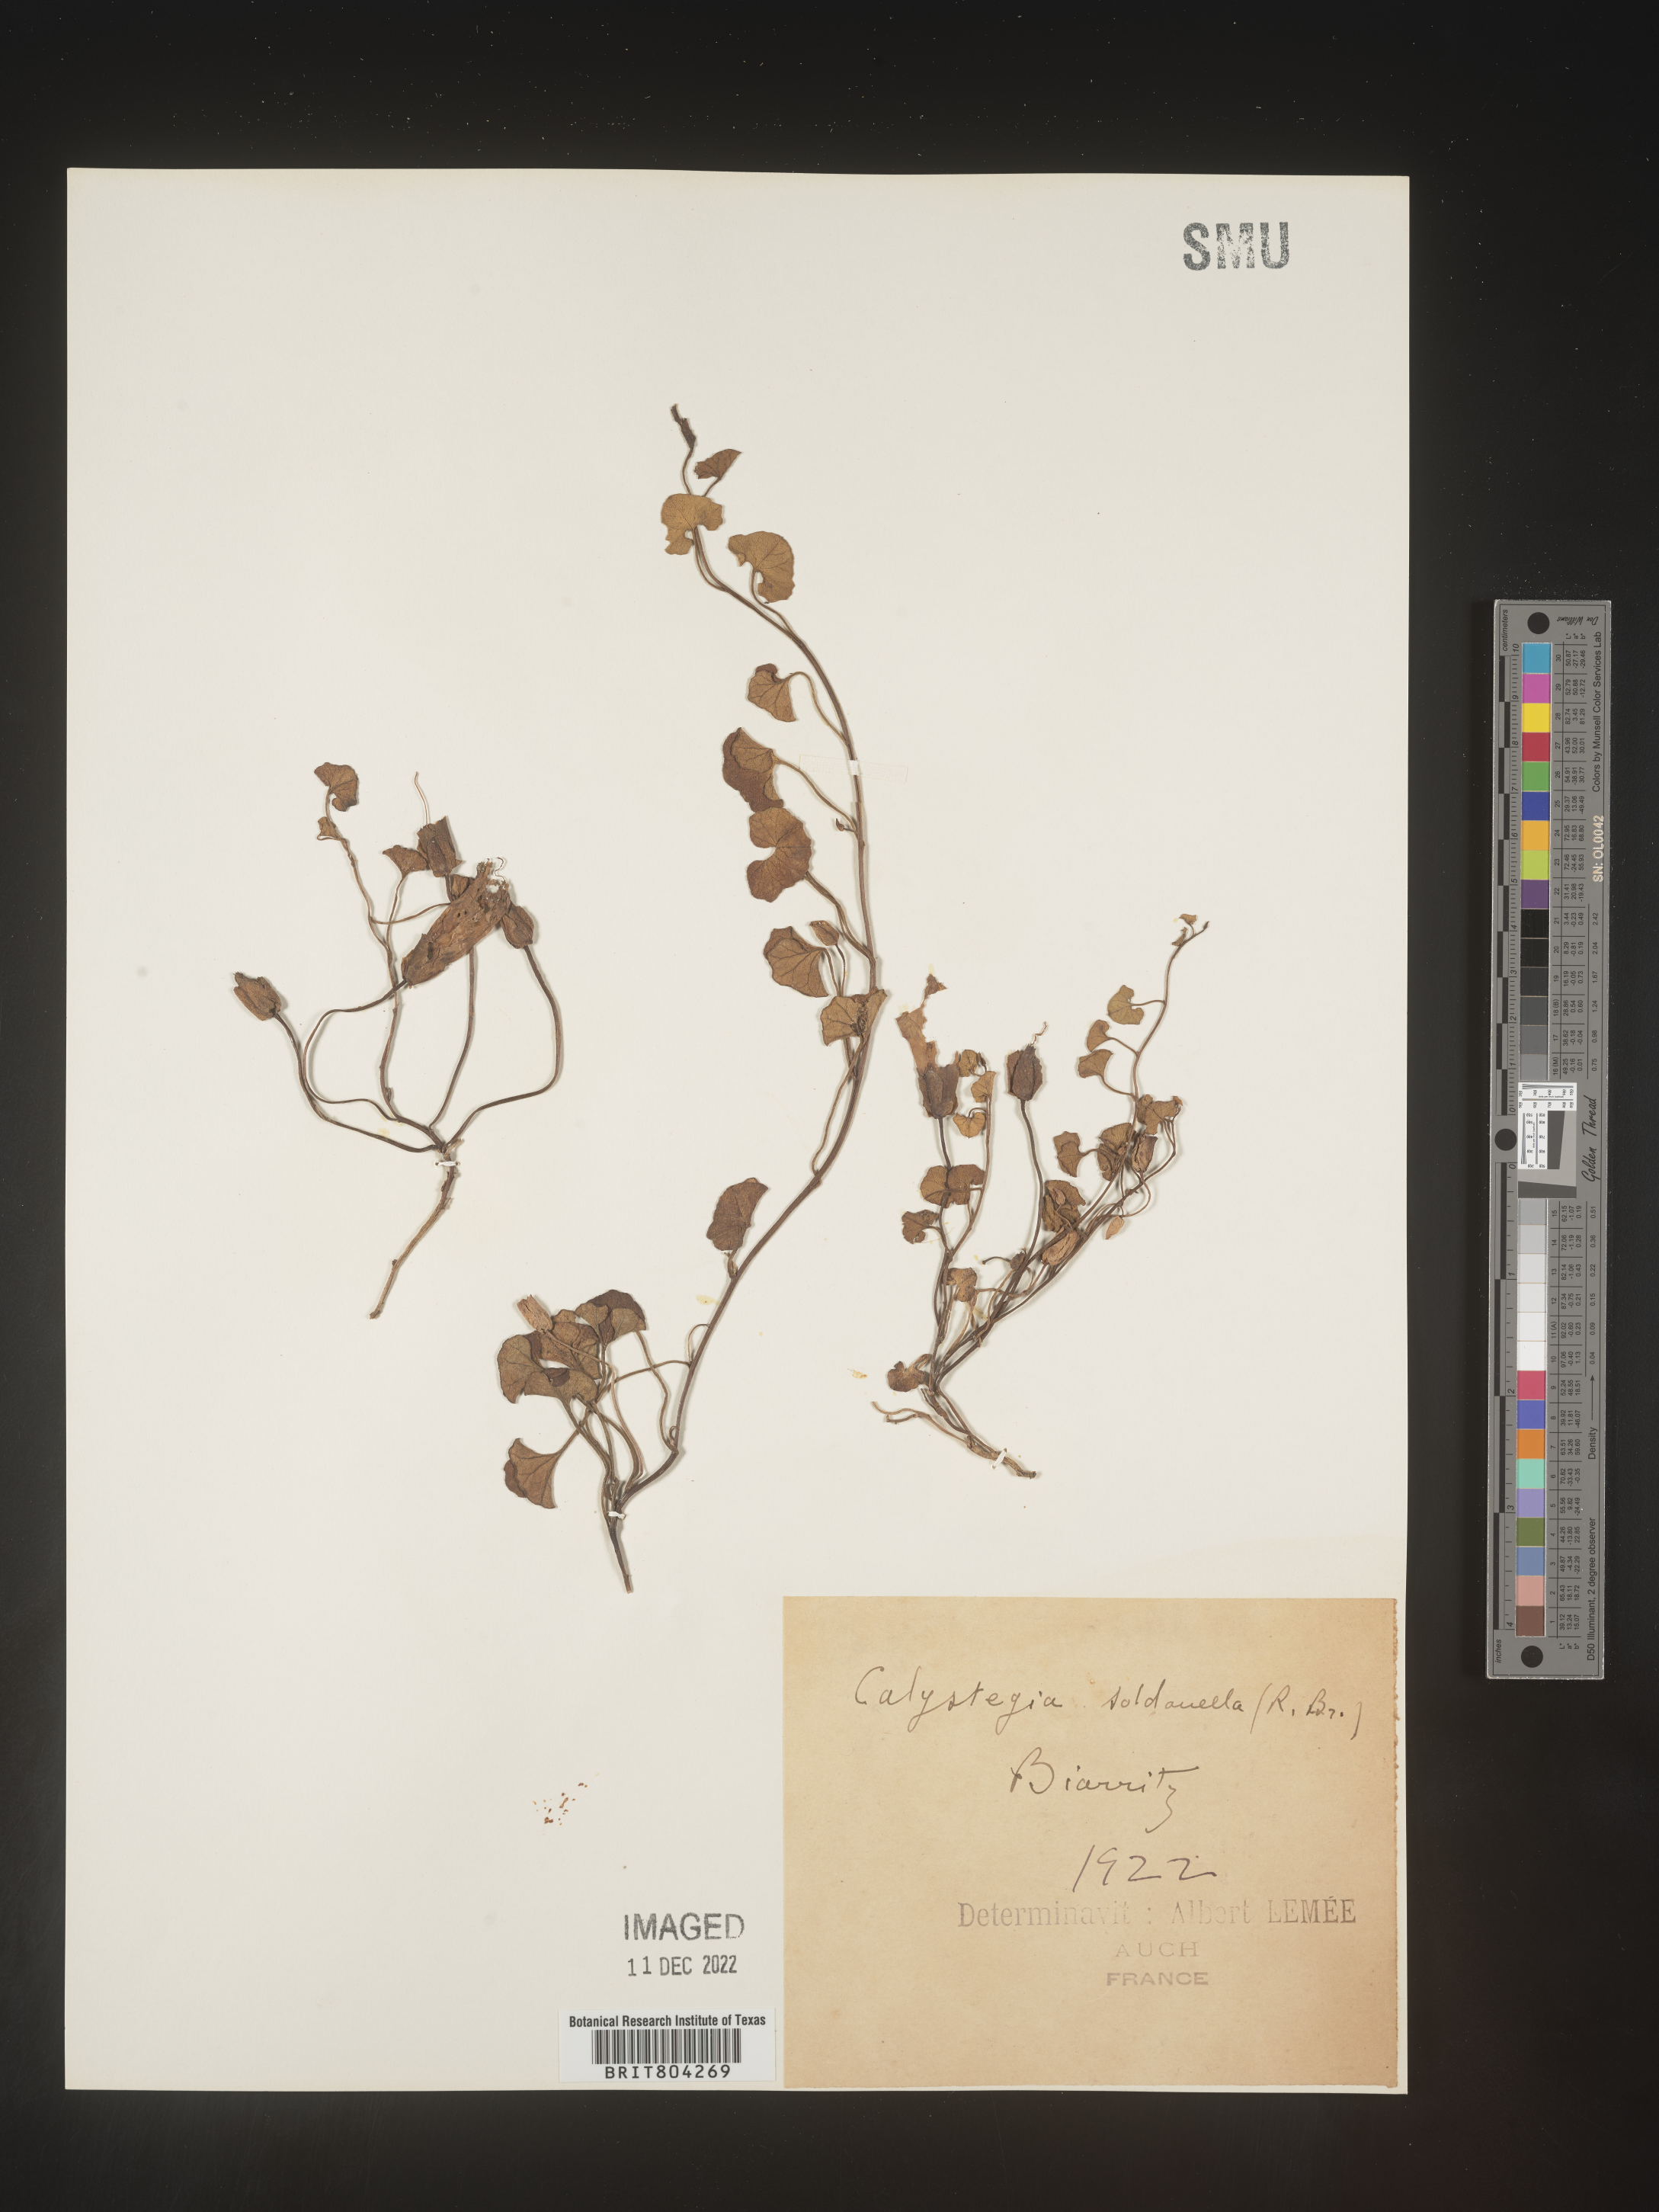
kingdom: Plantae
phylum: Tracheophyta
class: Magnoliopsida
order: Solanales
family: Convolvulaceae
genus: Calystegia
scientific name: Calystegia
